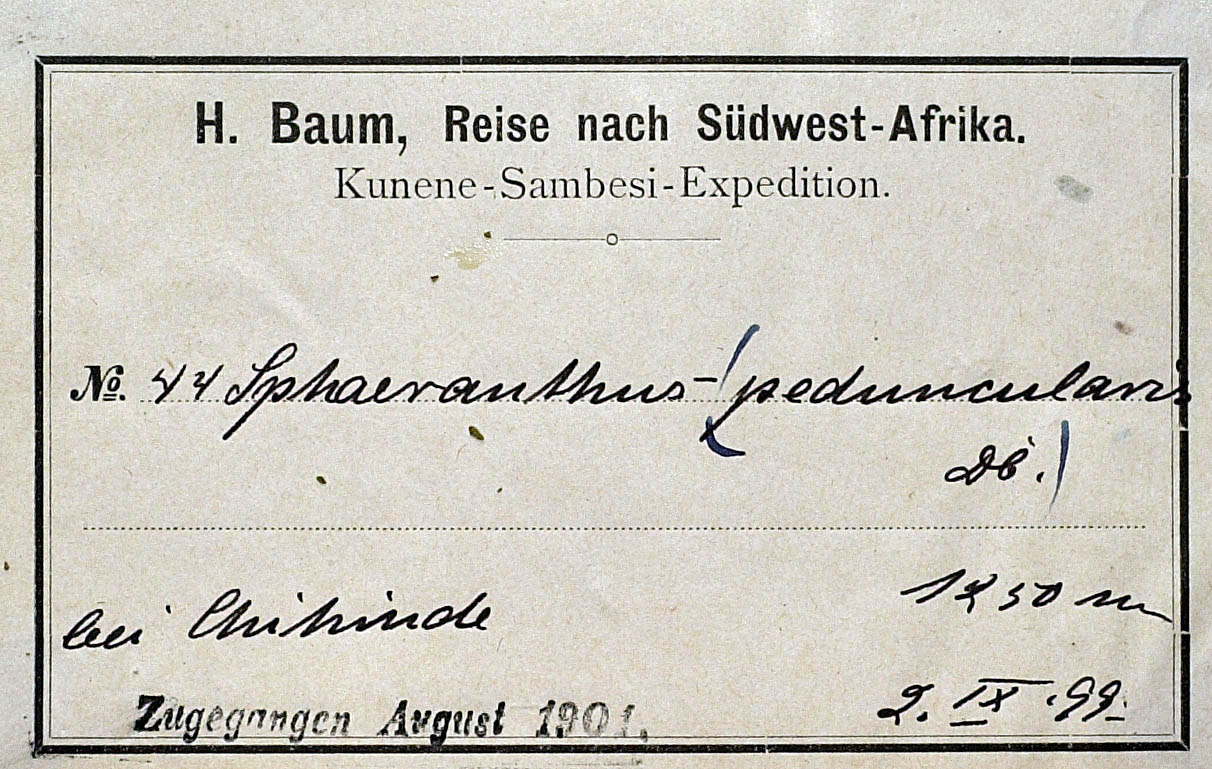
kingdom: Plantae
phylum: Tracheophyta
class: Magnoliopsida
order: Asterales
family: Asteraceae
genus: Sphaeranthus
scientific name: Sphaeranthus peduncularis
